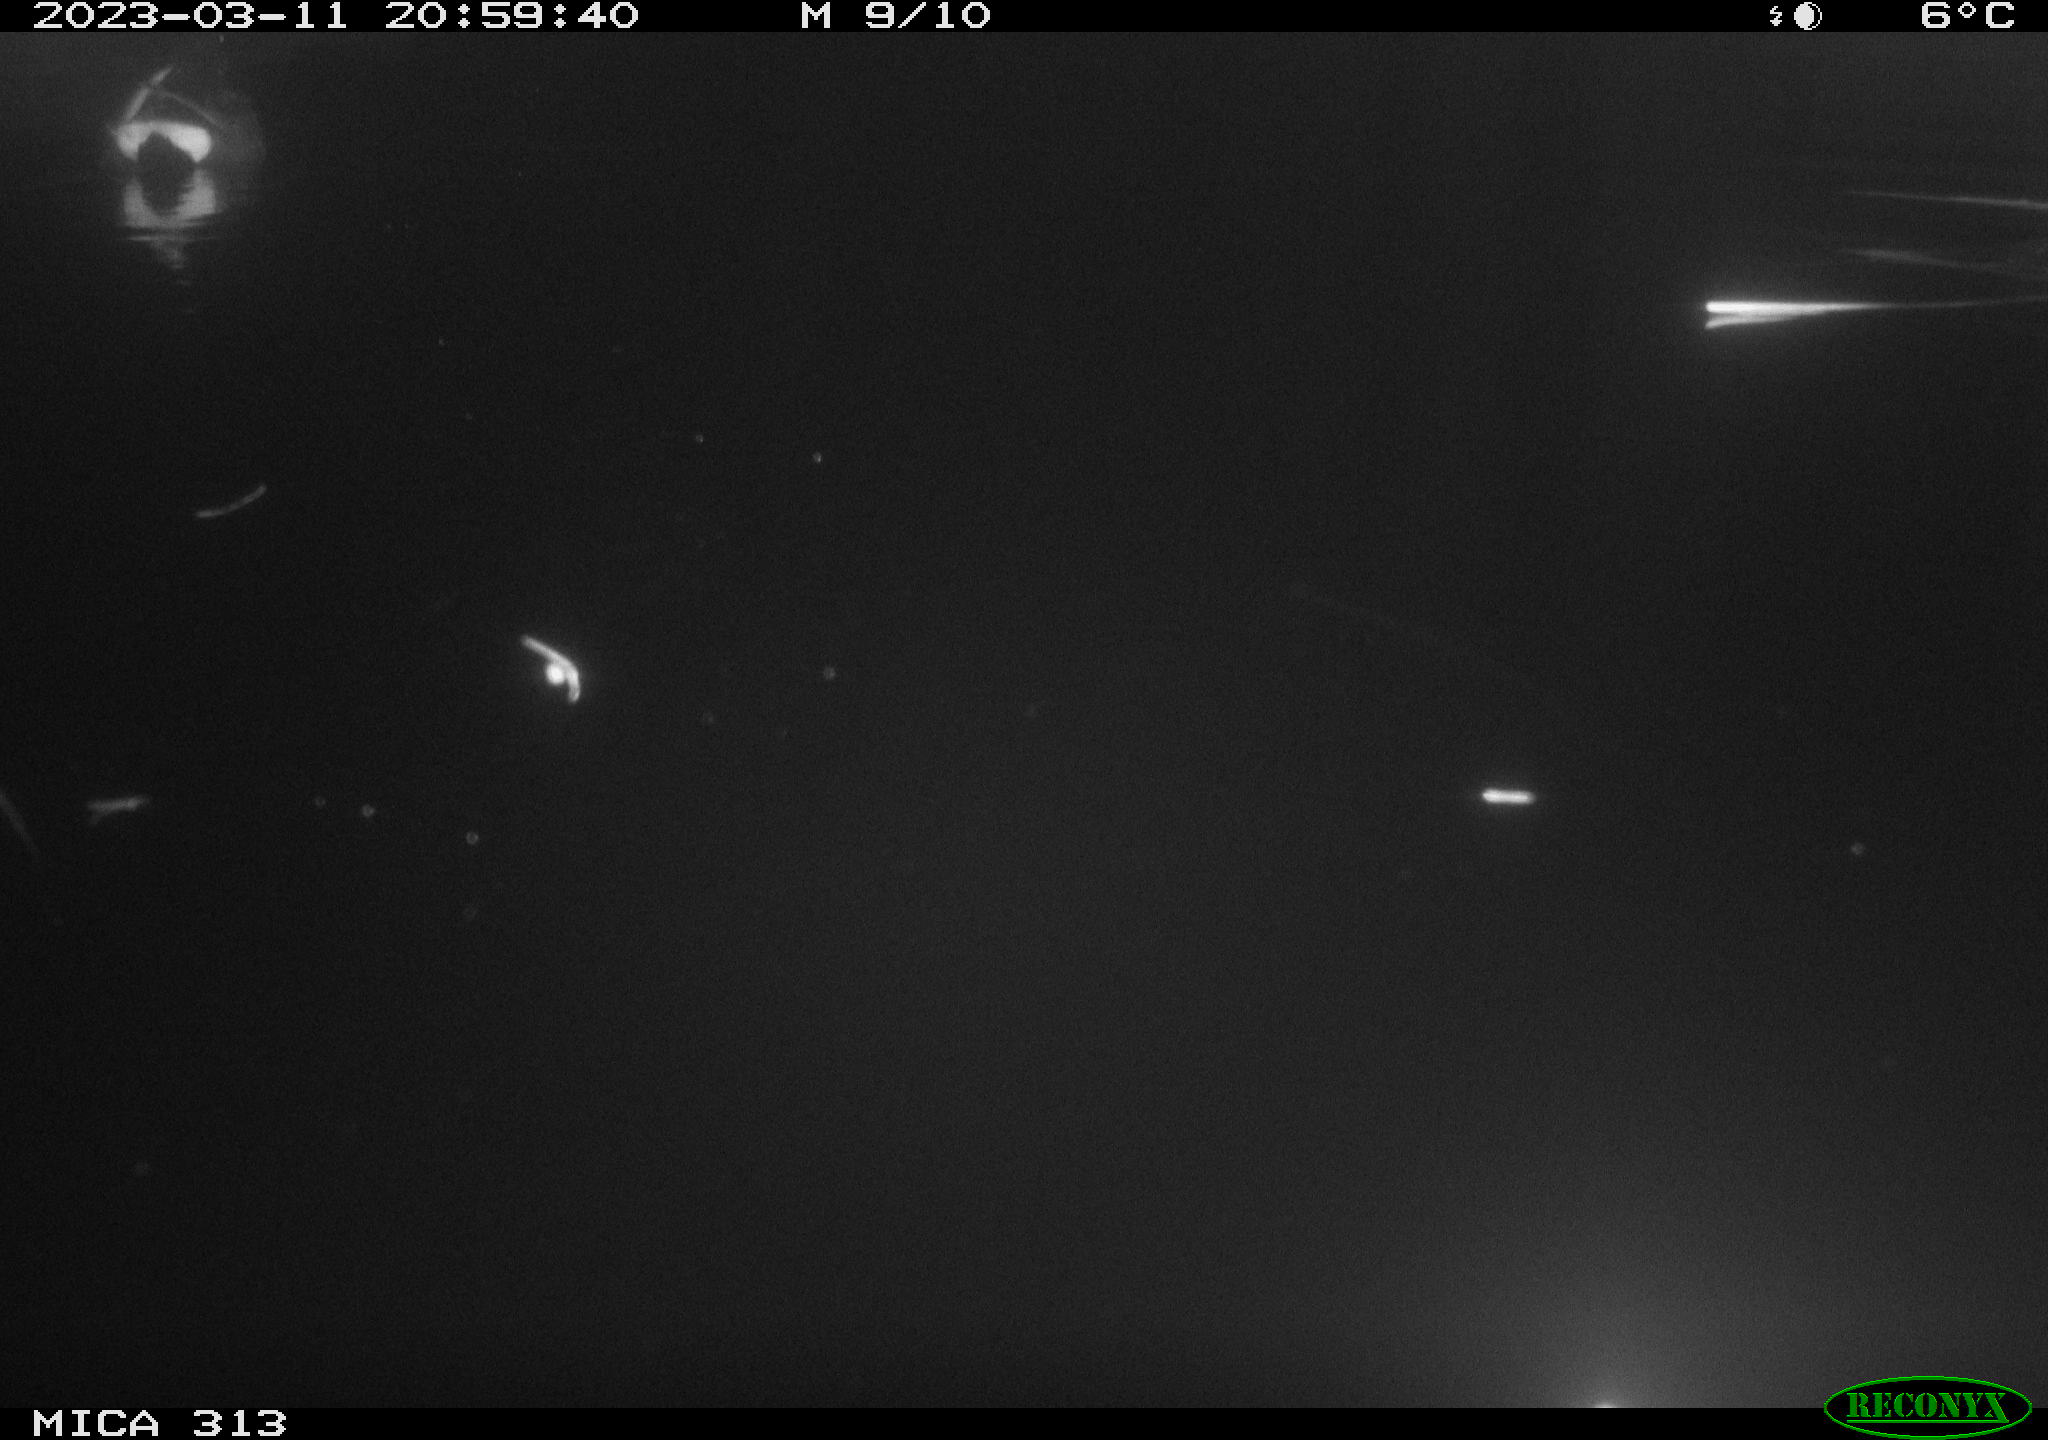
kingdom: Animalia
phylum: Chordata
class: Aves
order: Anseriformes
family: Anatidae
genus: Anas
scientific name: Anas
